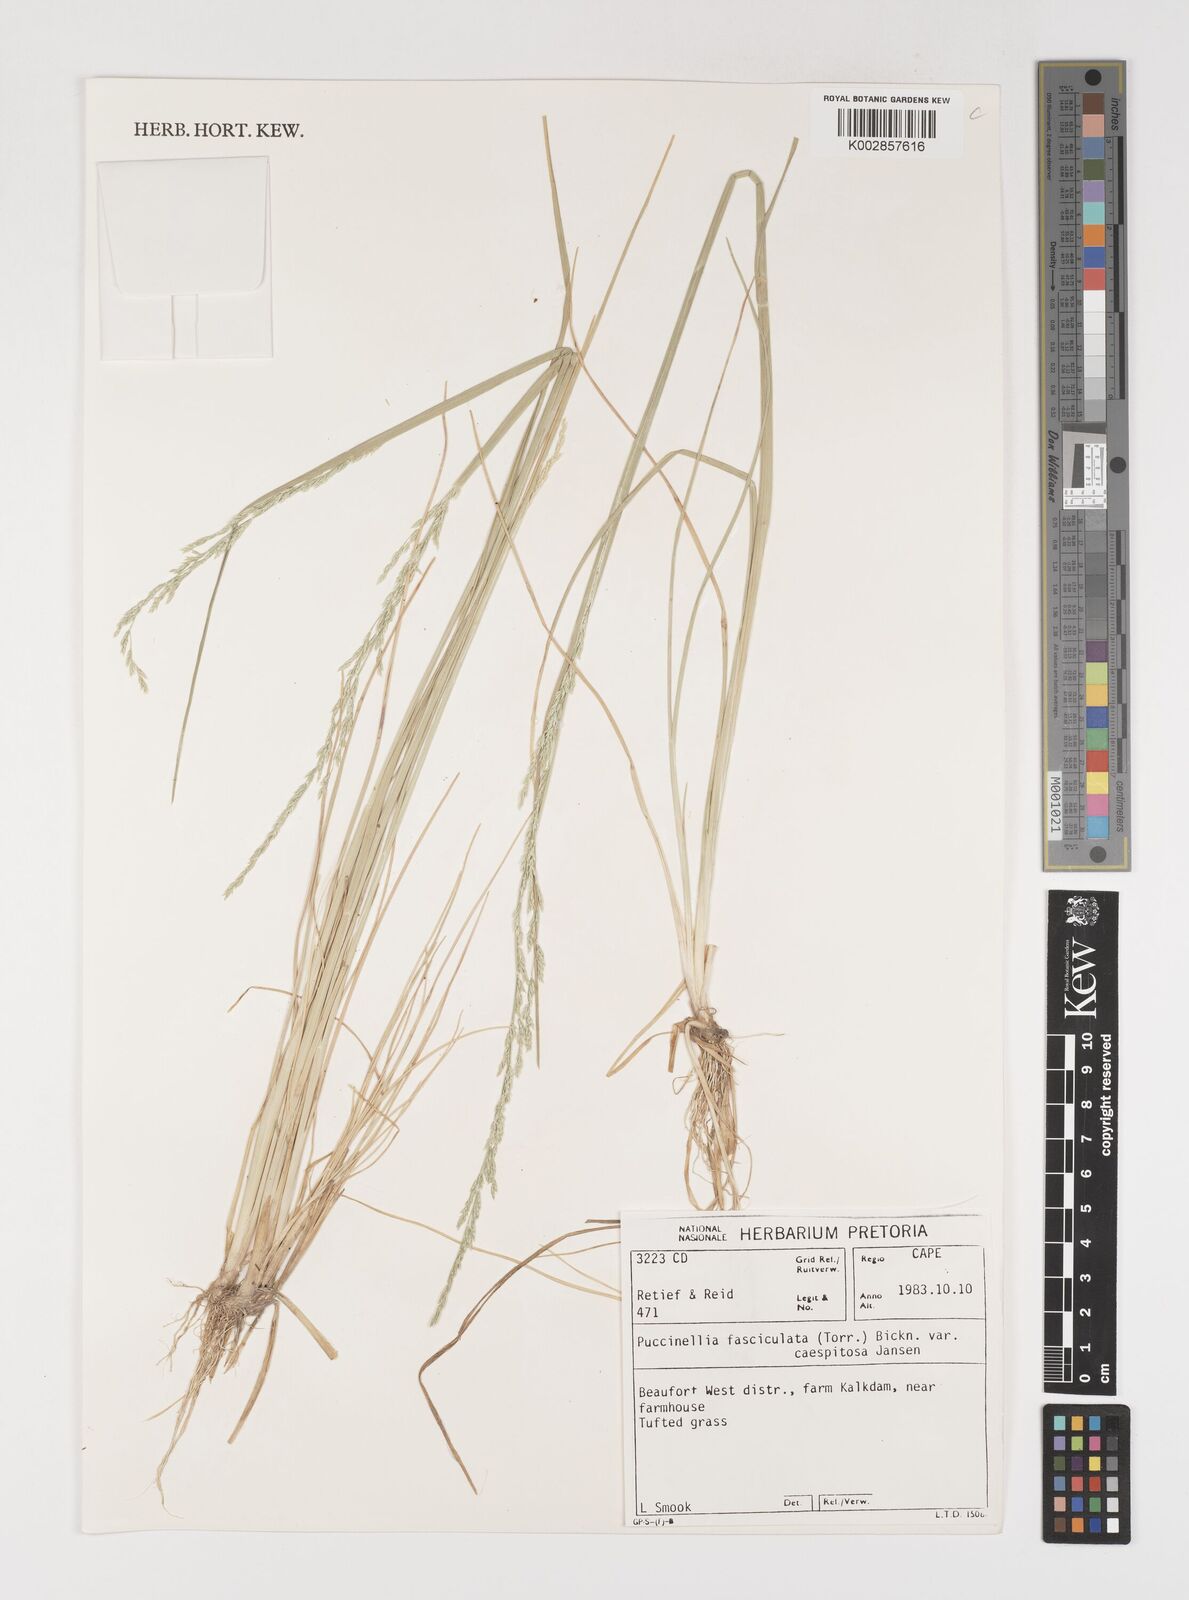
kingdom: Plantae
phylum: Tracheophyta
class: Liliopsida
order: Poales
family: Poaceae
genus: Puccinellia
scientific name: Puccinellia fasciculata
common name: Borrer's saltmarsh-grass
